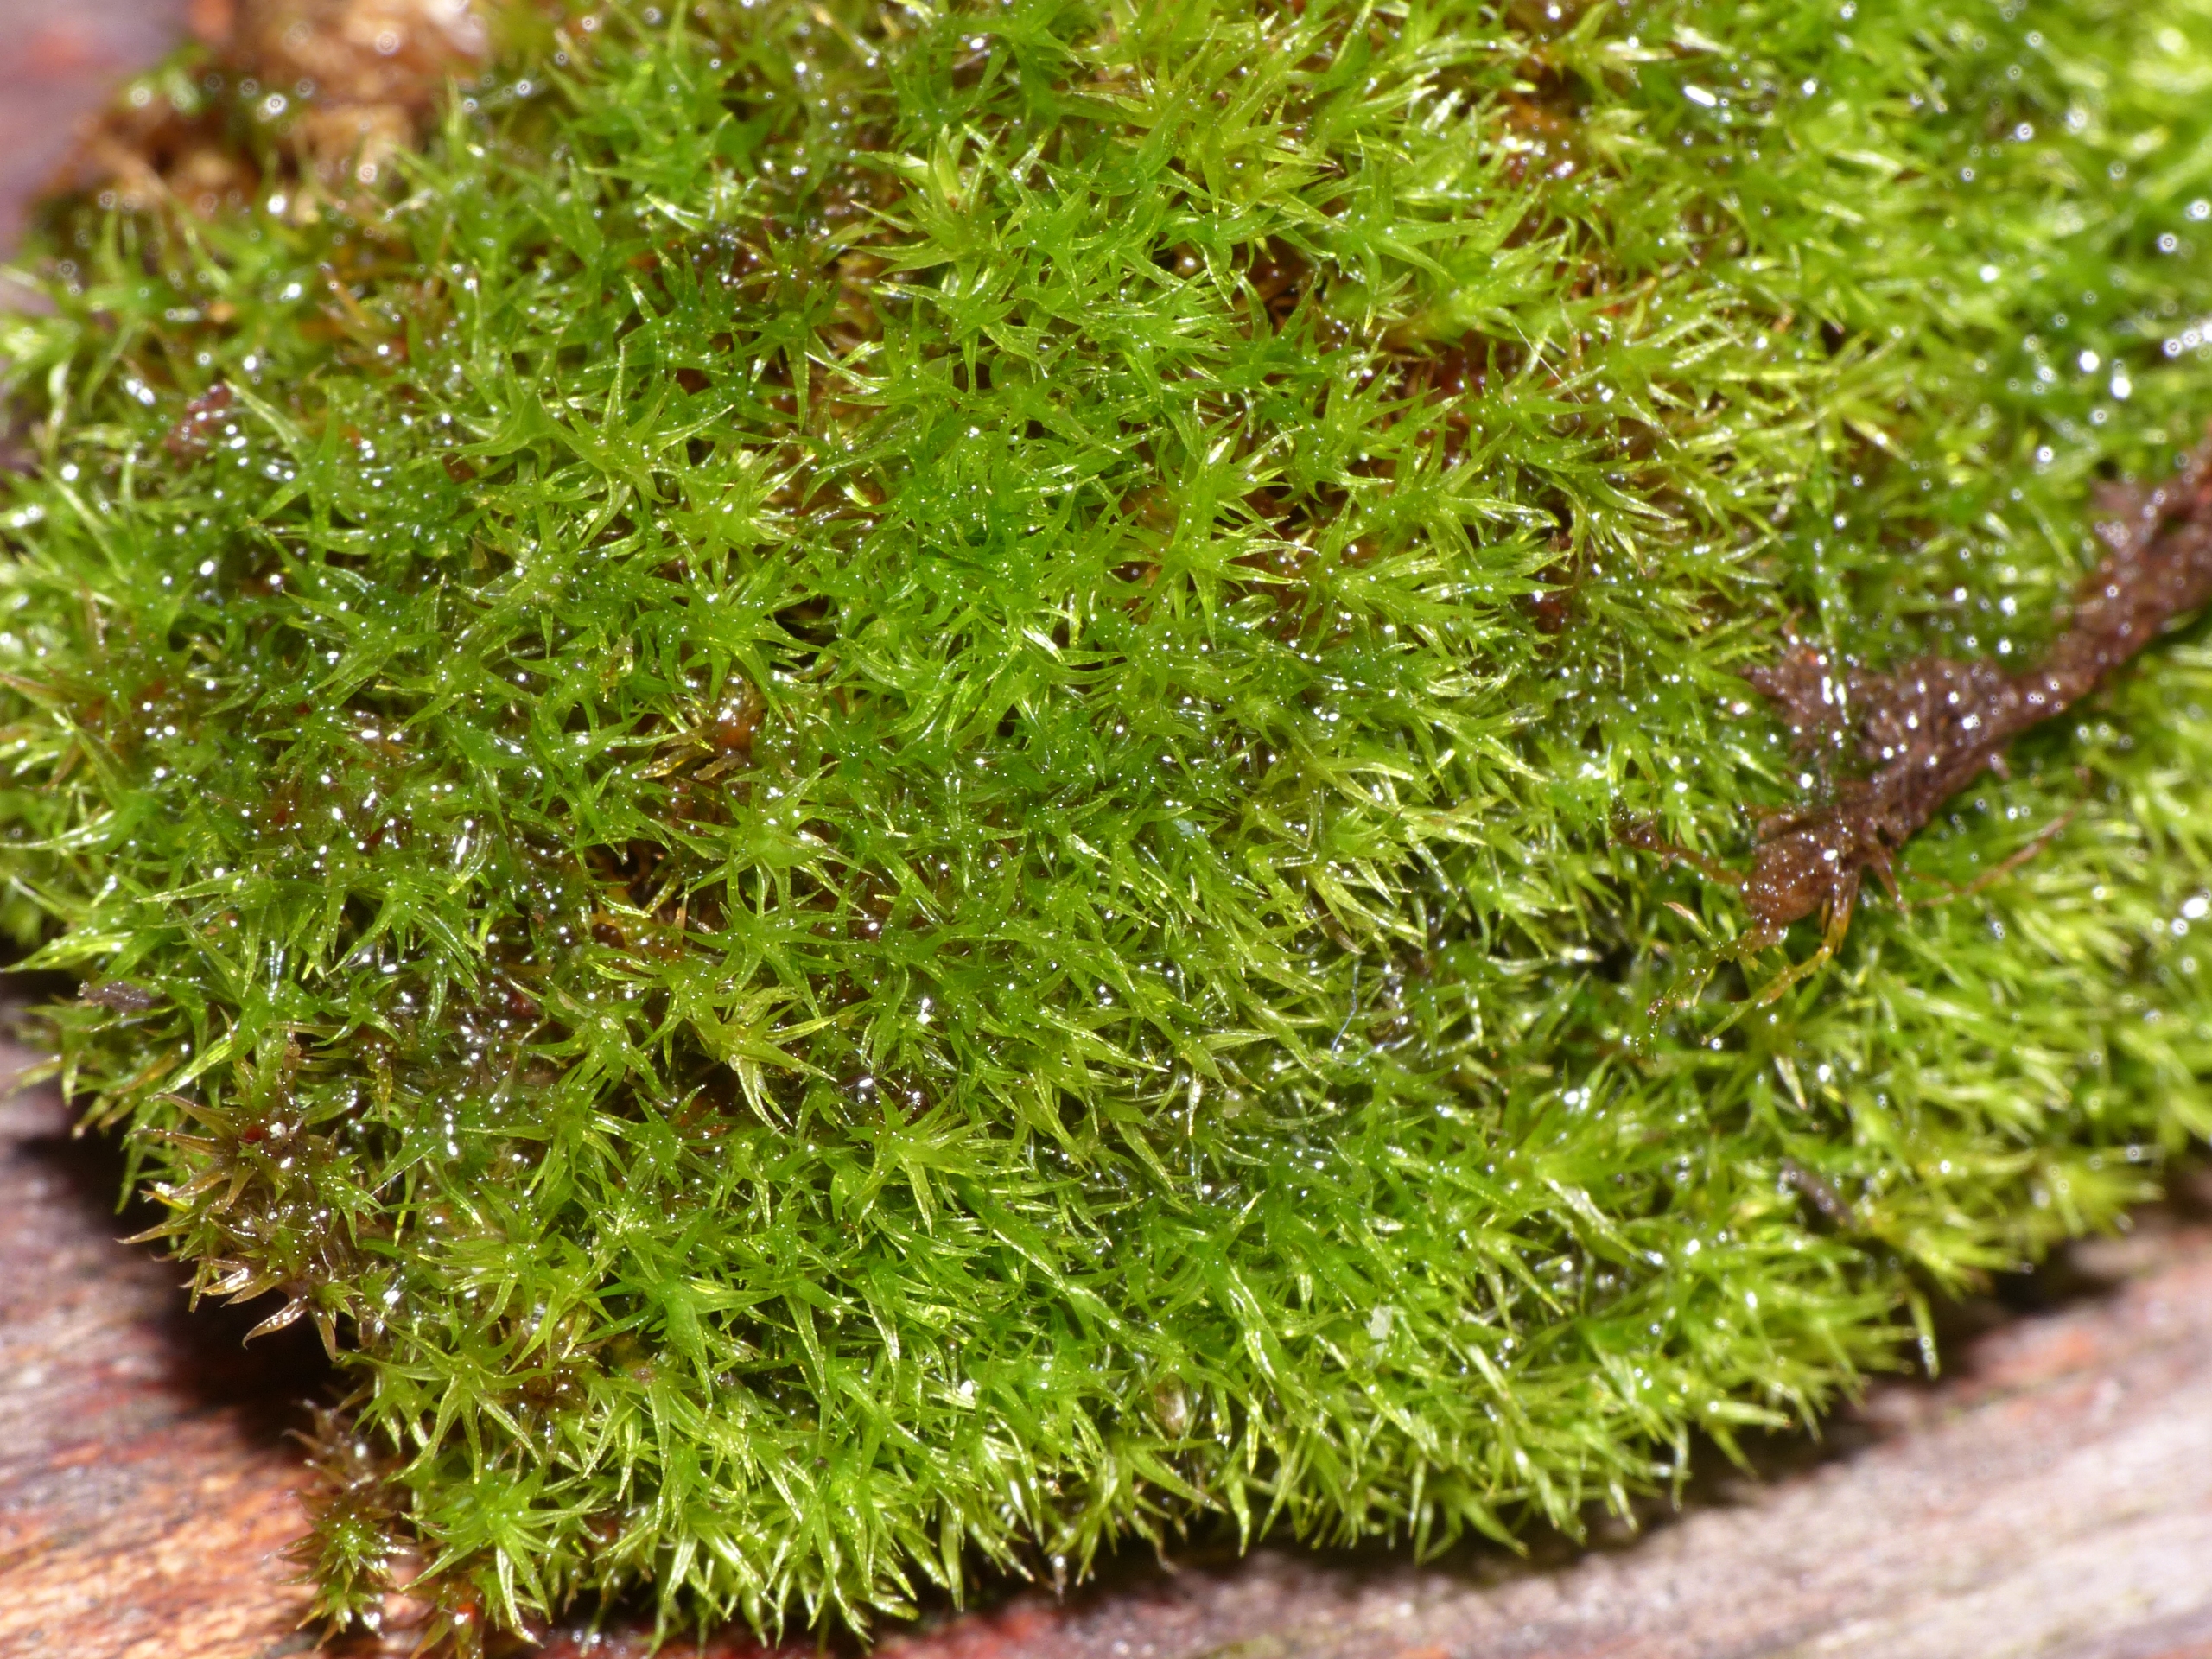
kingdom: Plantae
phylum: Bryophyta
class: Bryopsida
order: Dicranales
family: Ditrichaceae
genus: Ceratodon
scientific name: Ceratodon purpureus
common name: Rød horntand
